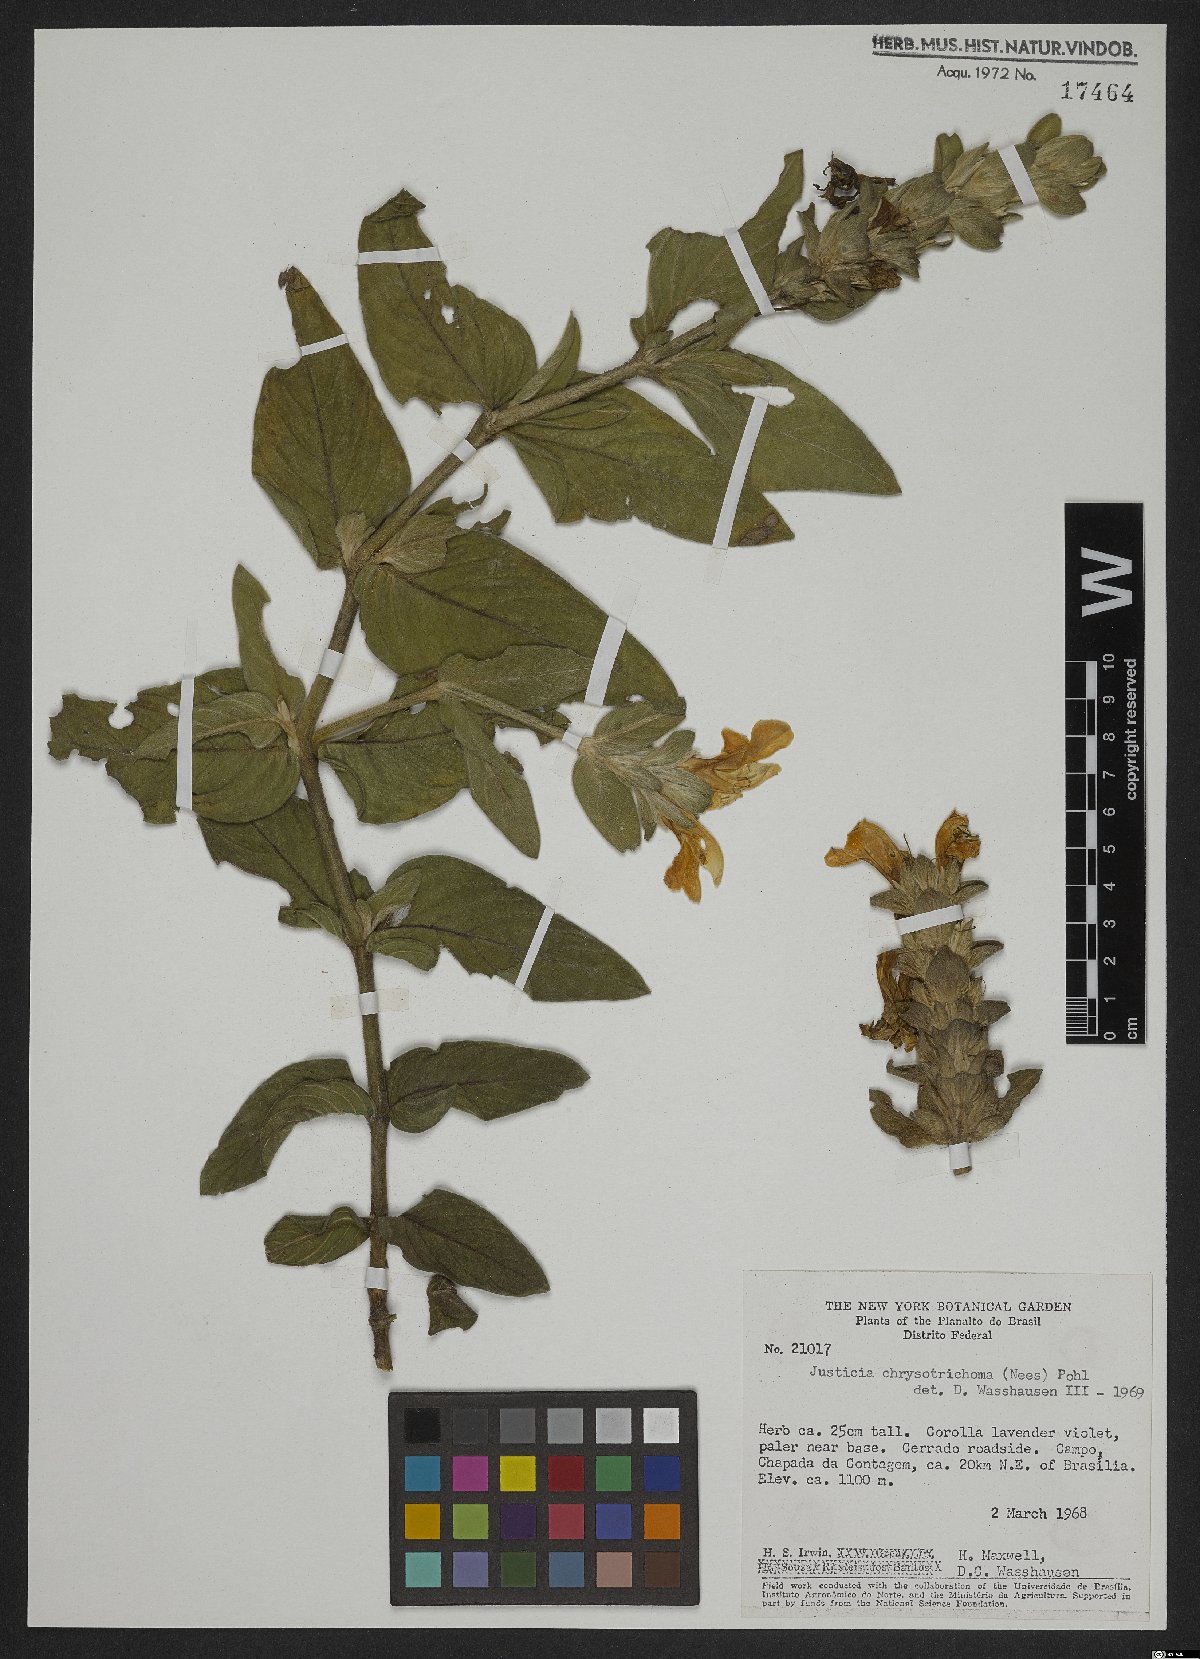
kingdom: Plantae
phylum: Tracheophyta
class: Magnoliopsida
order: Lamiales
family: Acanthaceae
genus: Justicia
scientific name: Justicia chrysotrichoma
